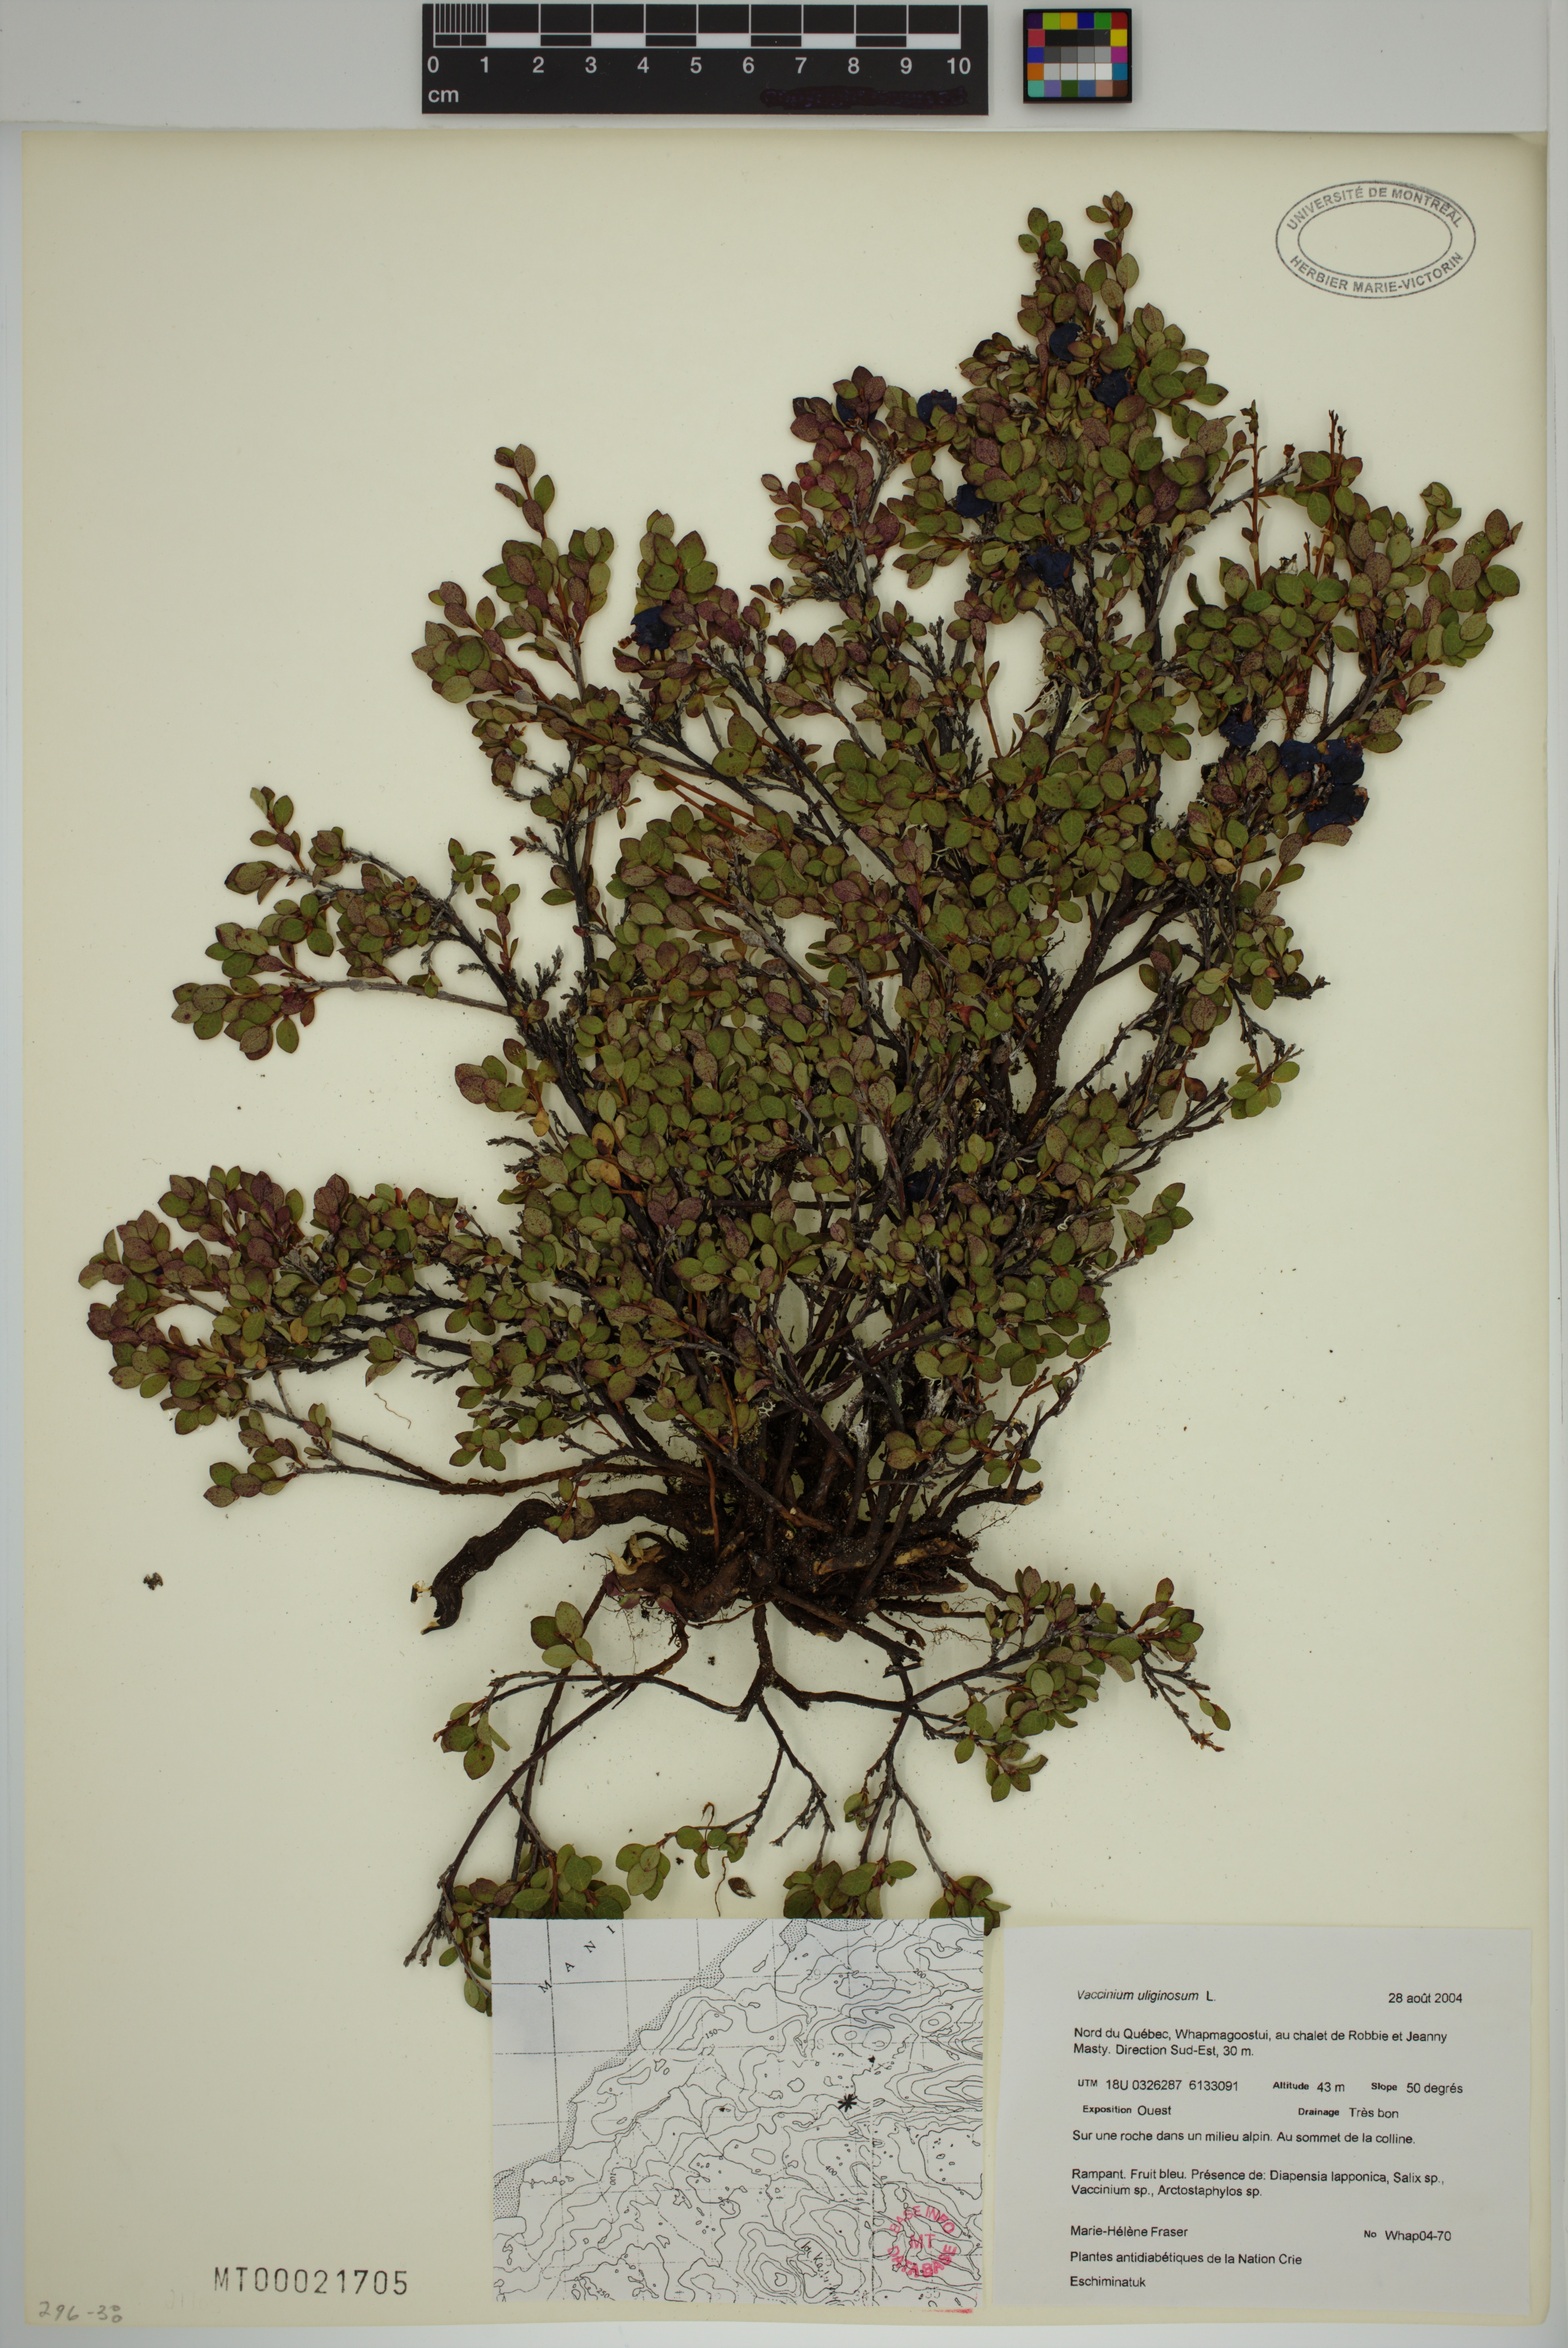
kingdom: Plantae
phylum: Tracheophyta
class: Magnoliopsida
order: Ericales
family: Ericaceae
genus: Vaccinium
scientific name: Vaccinium uliginosum
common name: Bog bilberry
